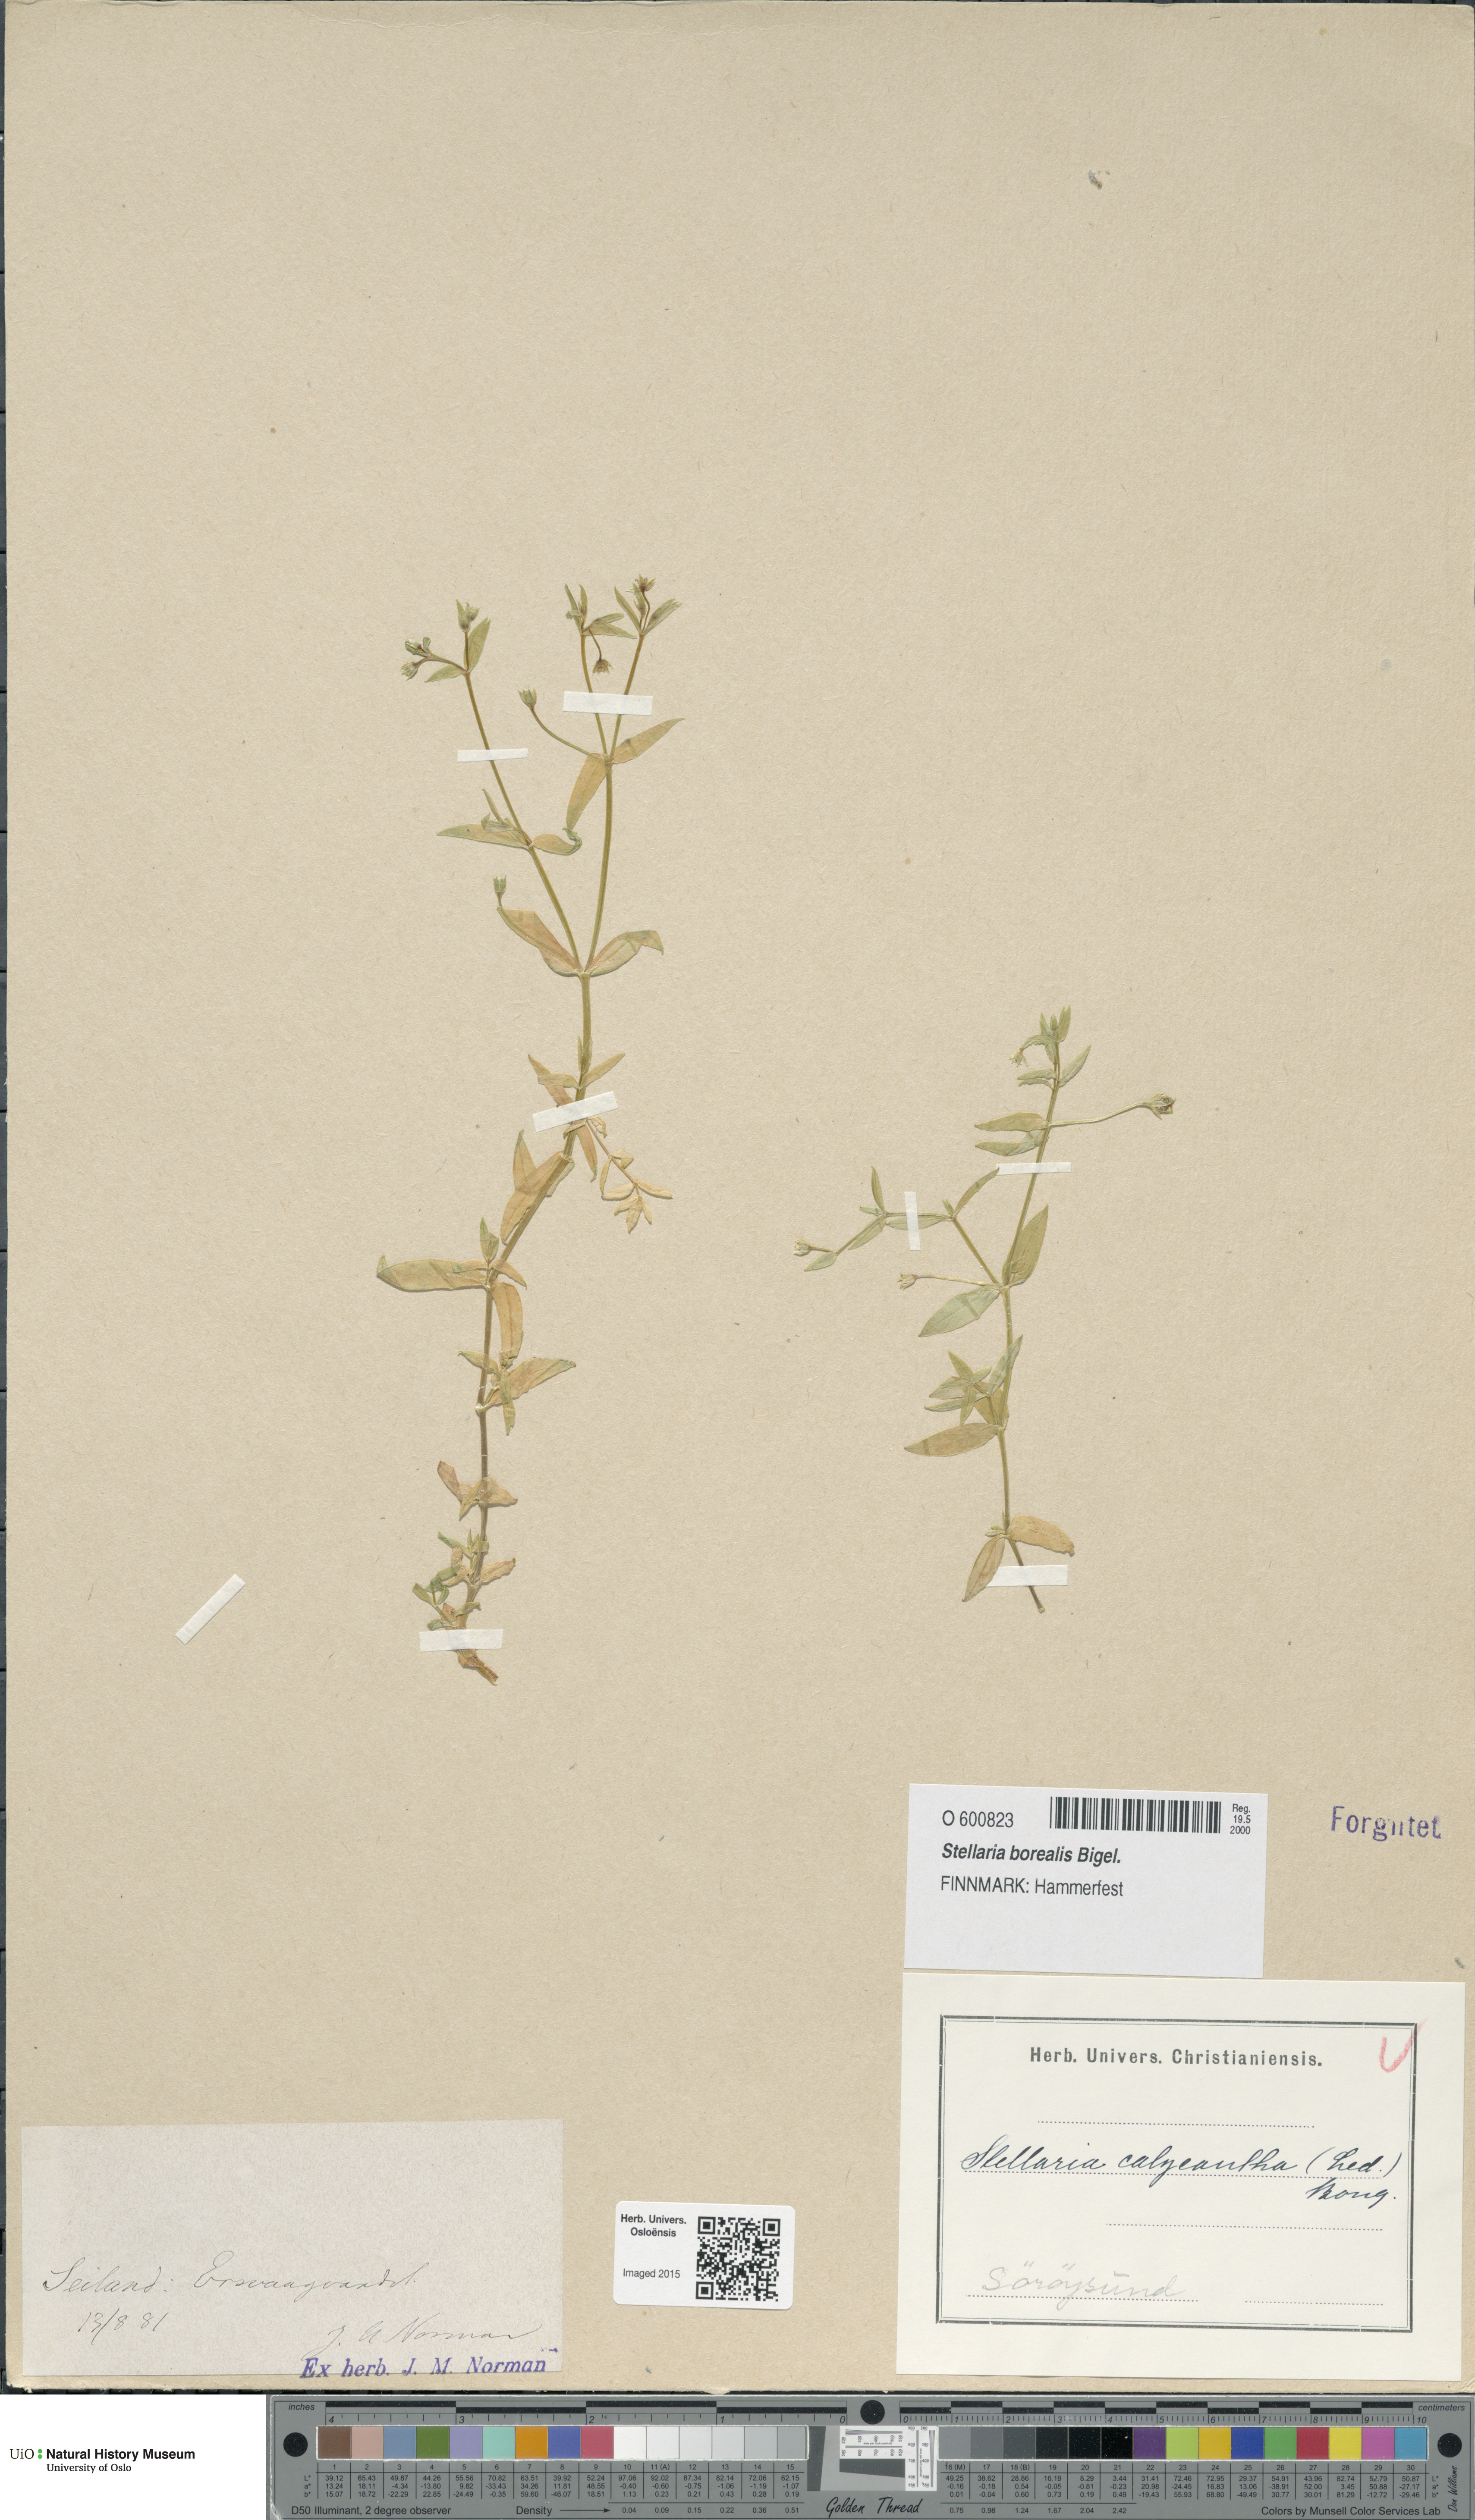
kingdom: Plantae
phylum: Tracheophyta
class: Magnoliopsida
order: Caryophyllales
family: Caryophyllaceae
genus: Stellaria
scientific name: Stellaria borealis
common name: Boreal starwort
